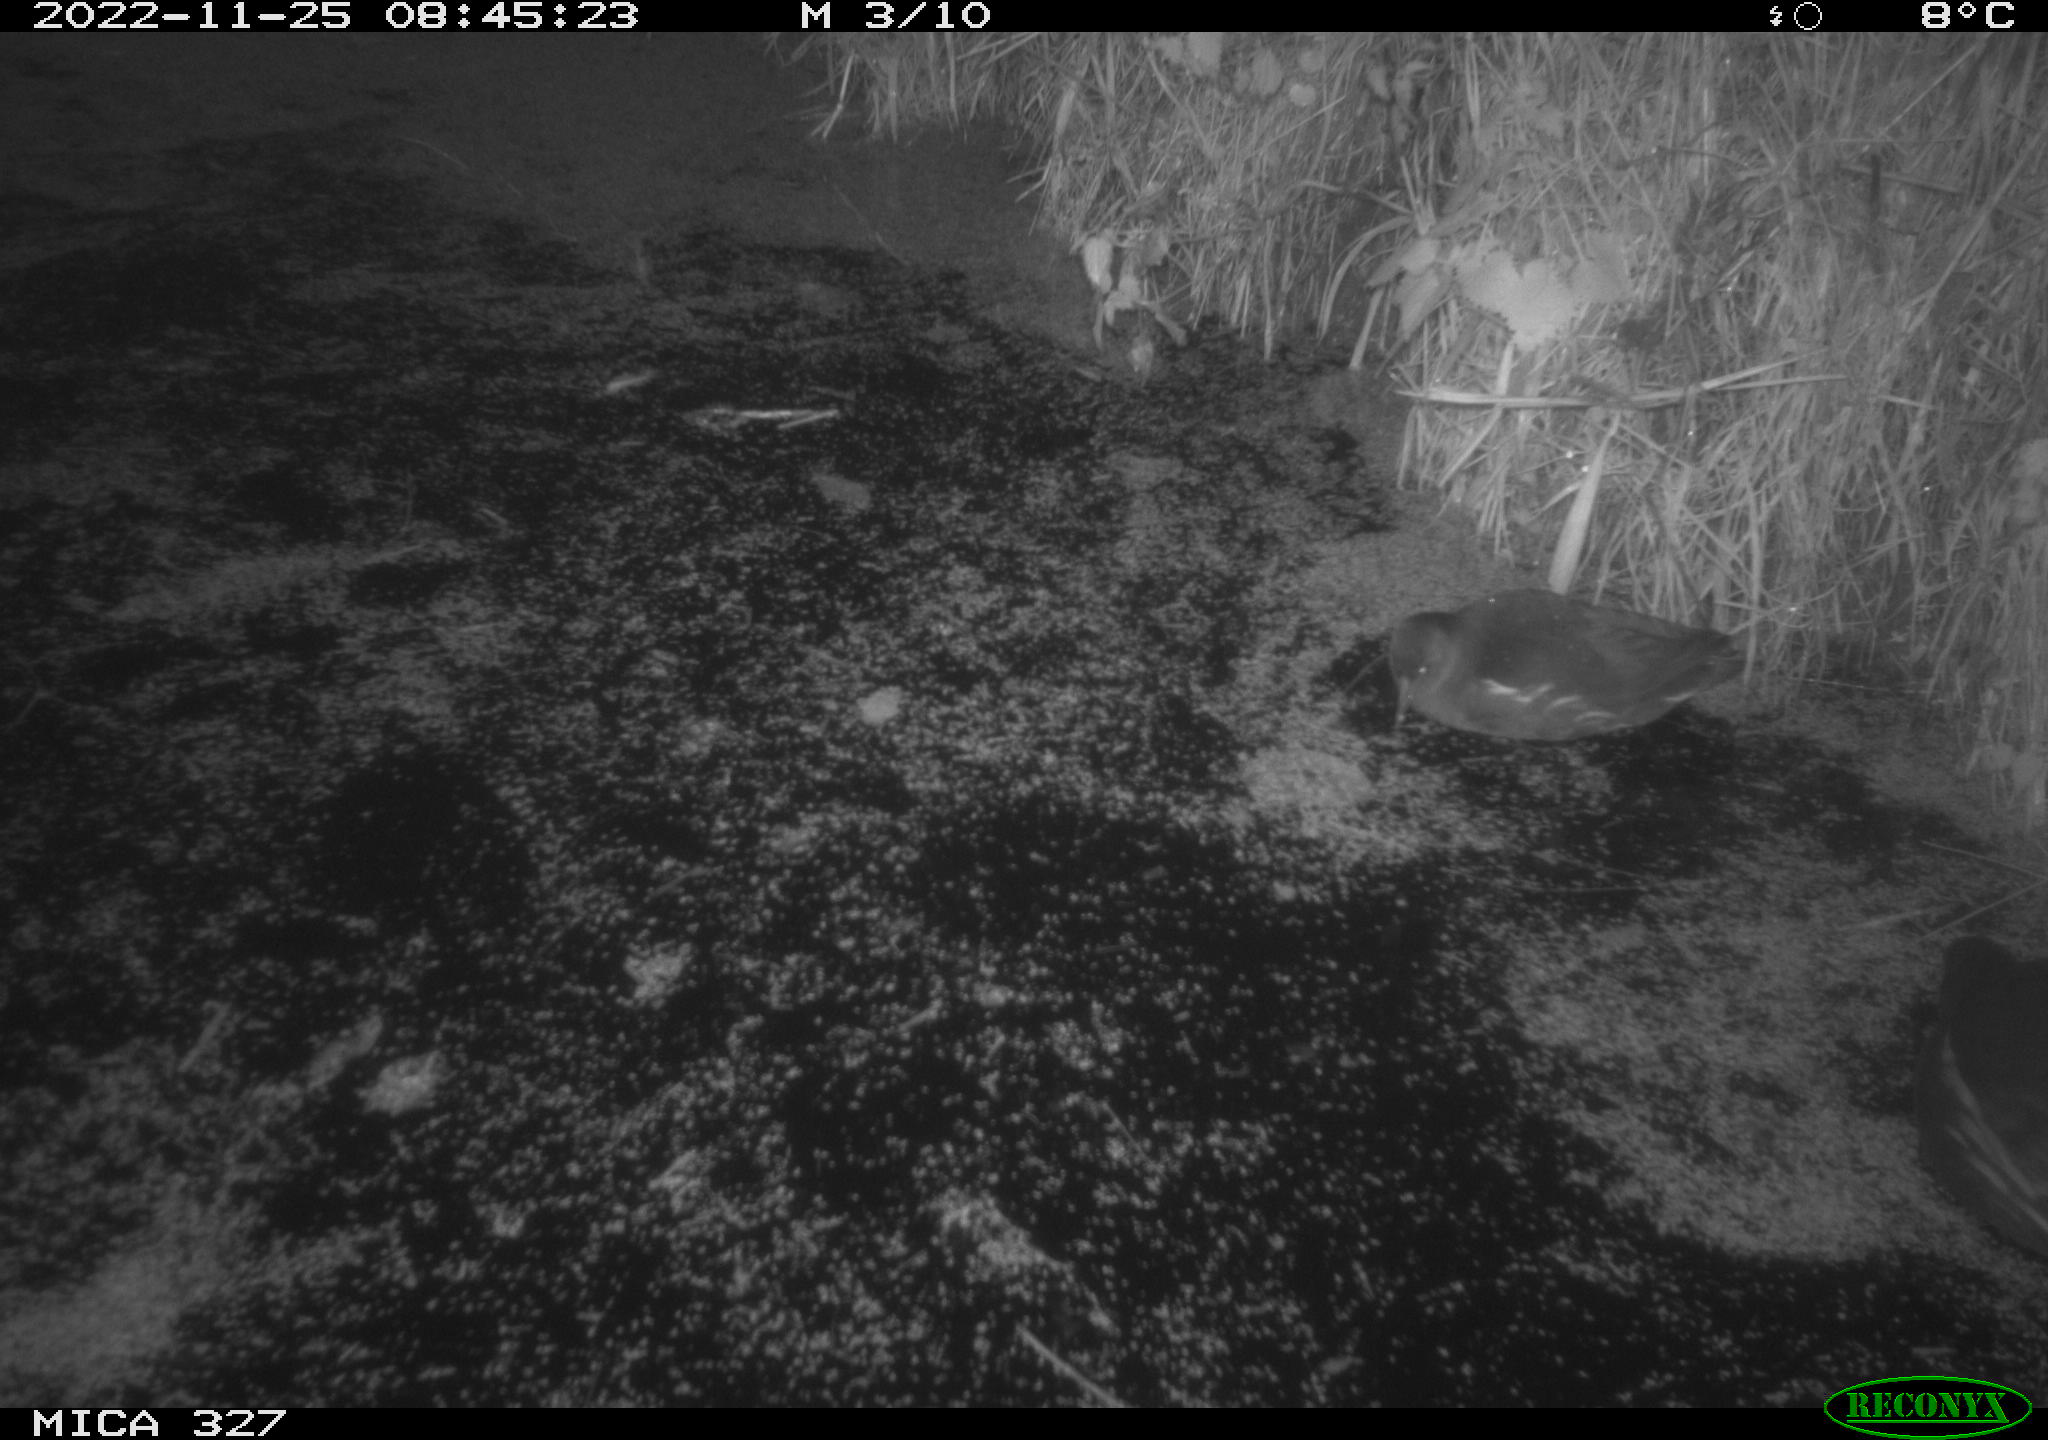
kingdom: Animalia
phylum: Chordata
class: Aves
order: Gruiformes
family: Rallidae
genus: Gallinula
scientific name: Gallinula chloropus
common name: Common moorhen
